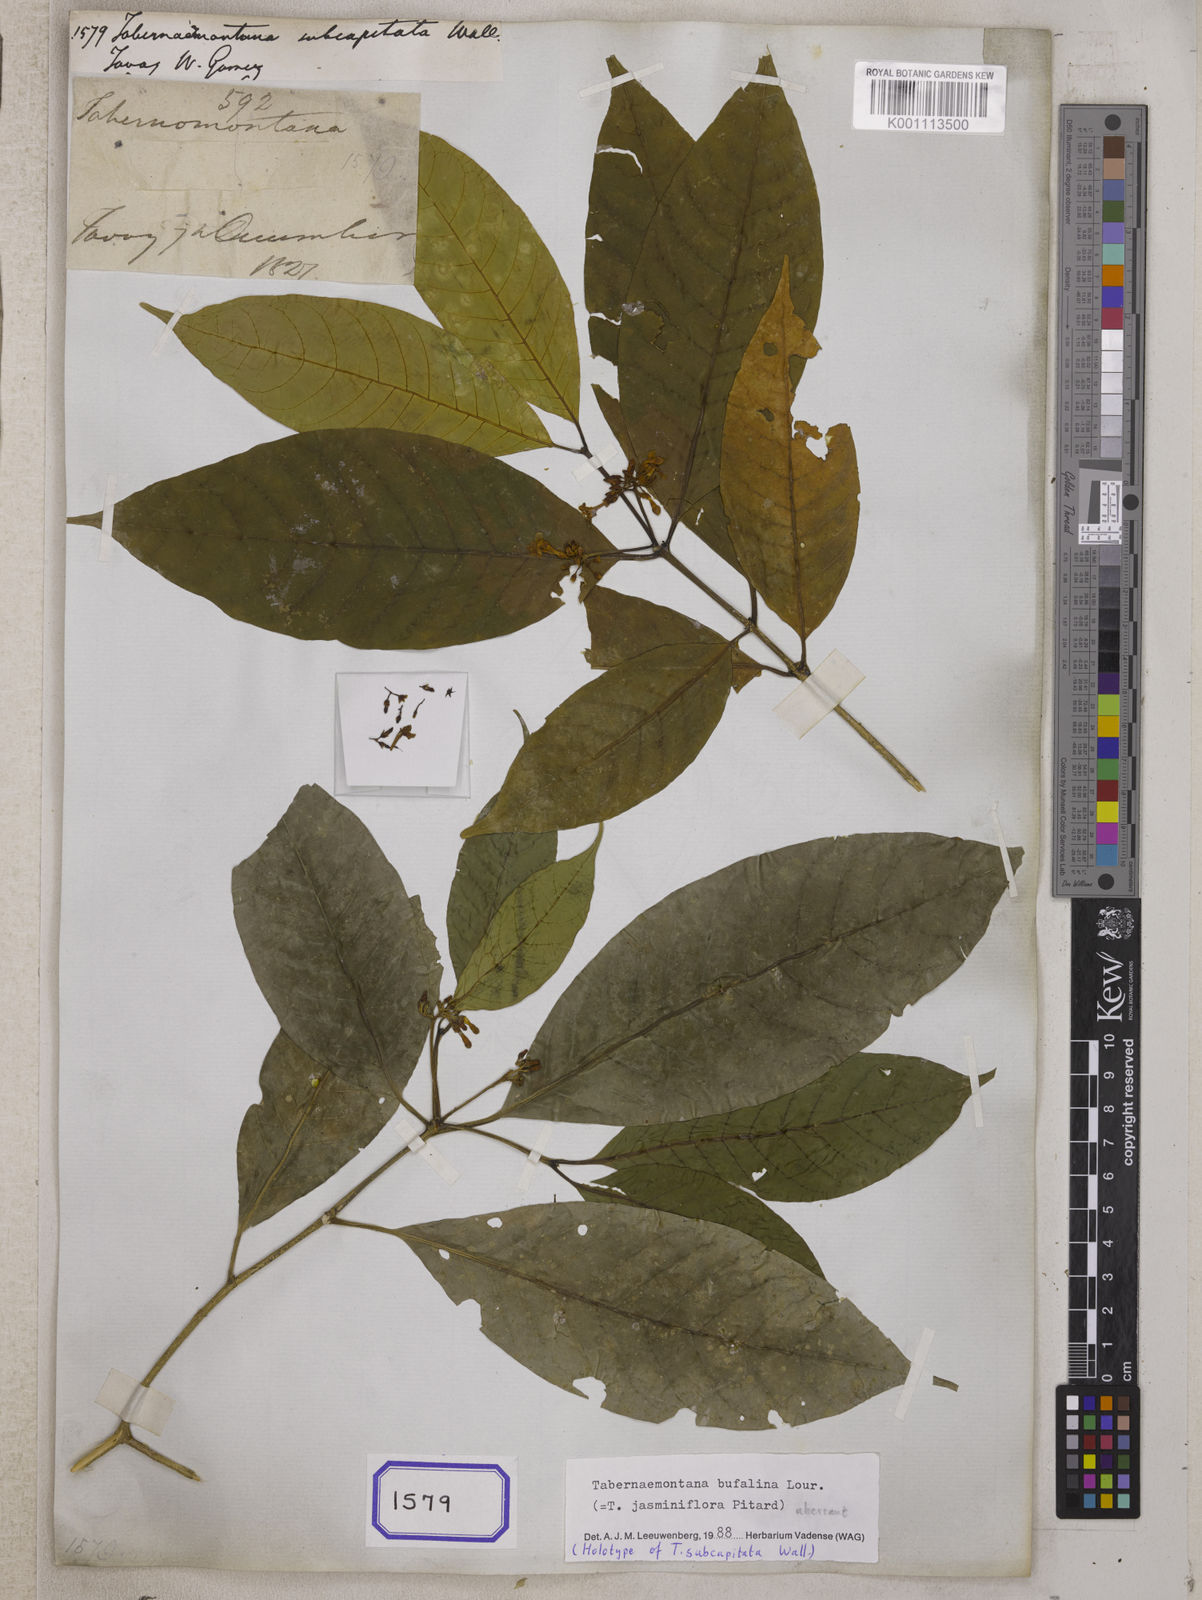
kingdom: Plantae
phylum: Tracheophyta
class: Magnoliopsida
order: Gentianales
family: Apocynaceae
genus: Tabernaemontana
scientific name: Tabernaemontana bufalina
